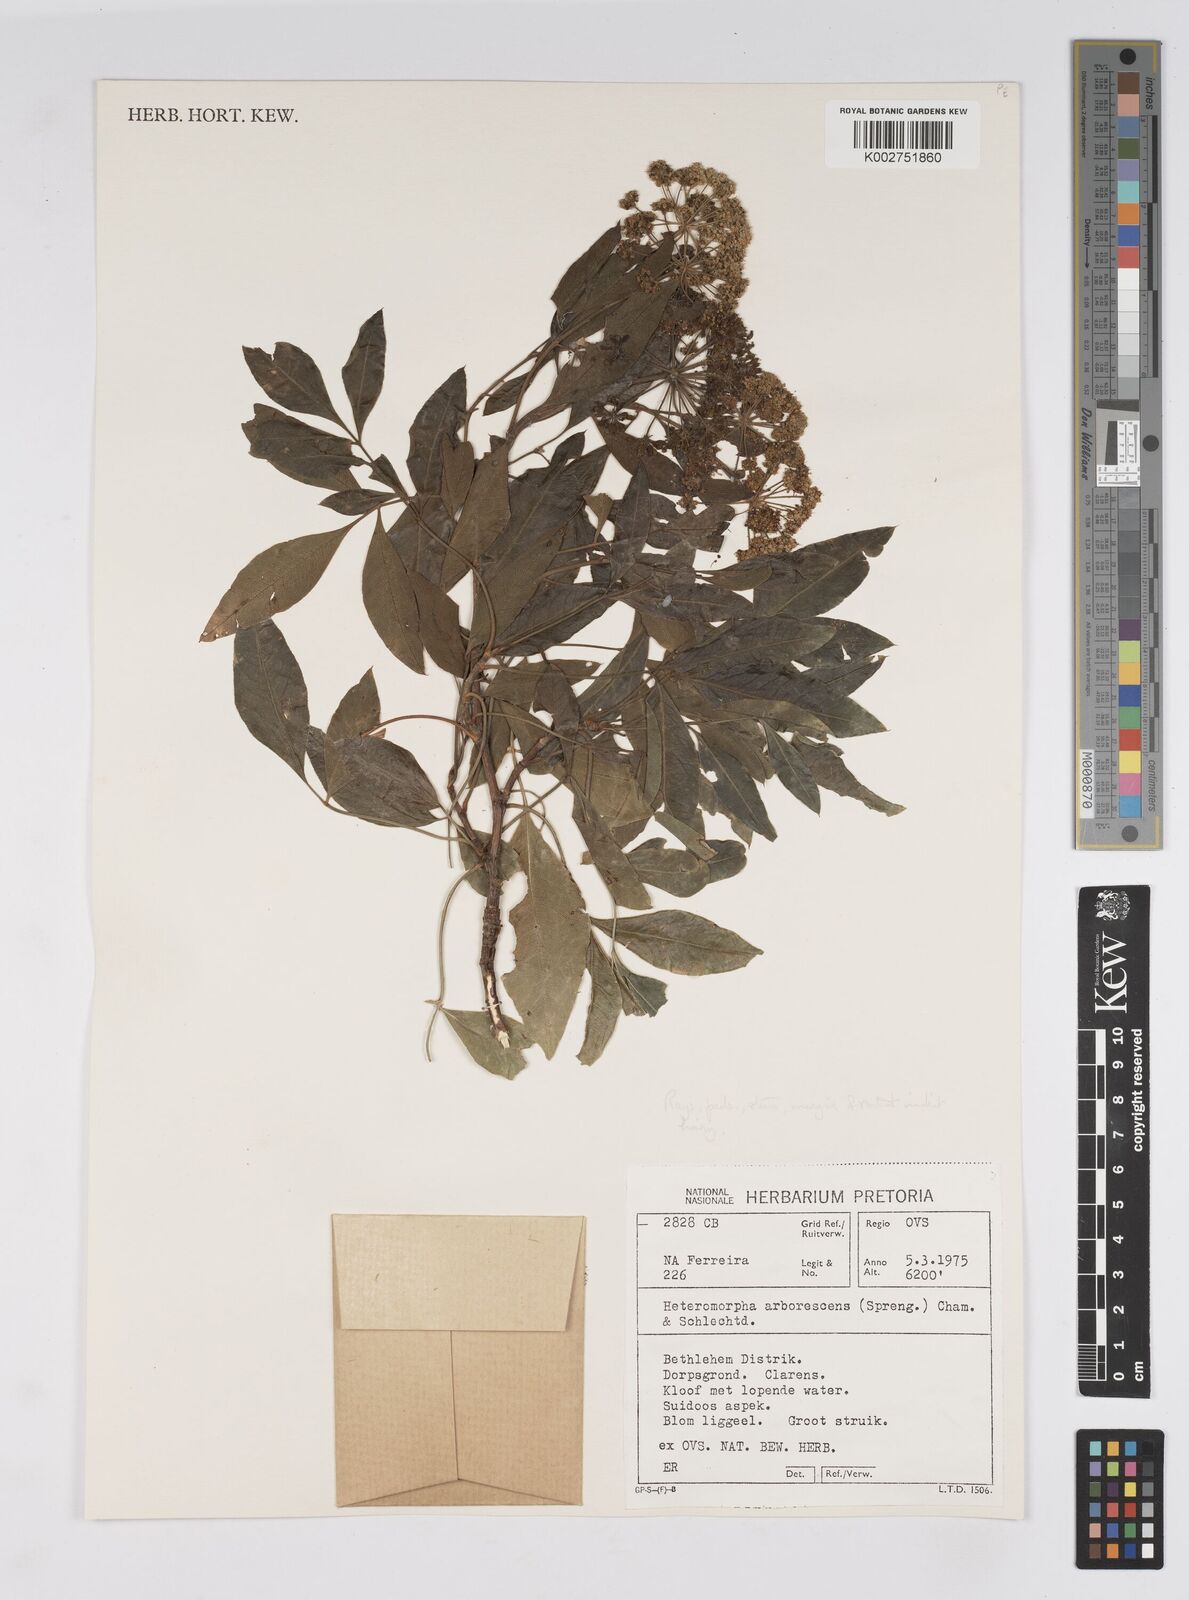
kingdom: Plantae
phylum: Tracheophyta
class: Magnoliopsida
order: Apiales
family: Apiaceae
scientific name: Apiaceae
